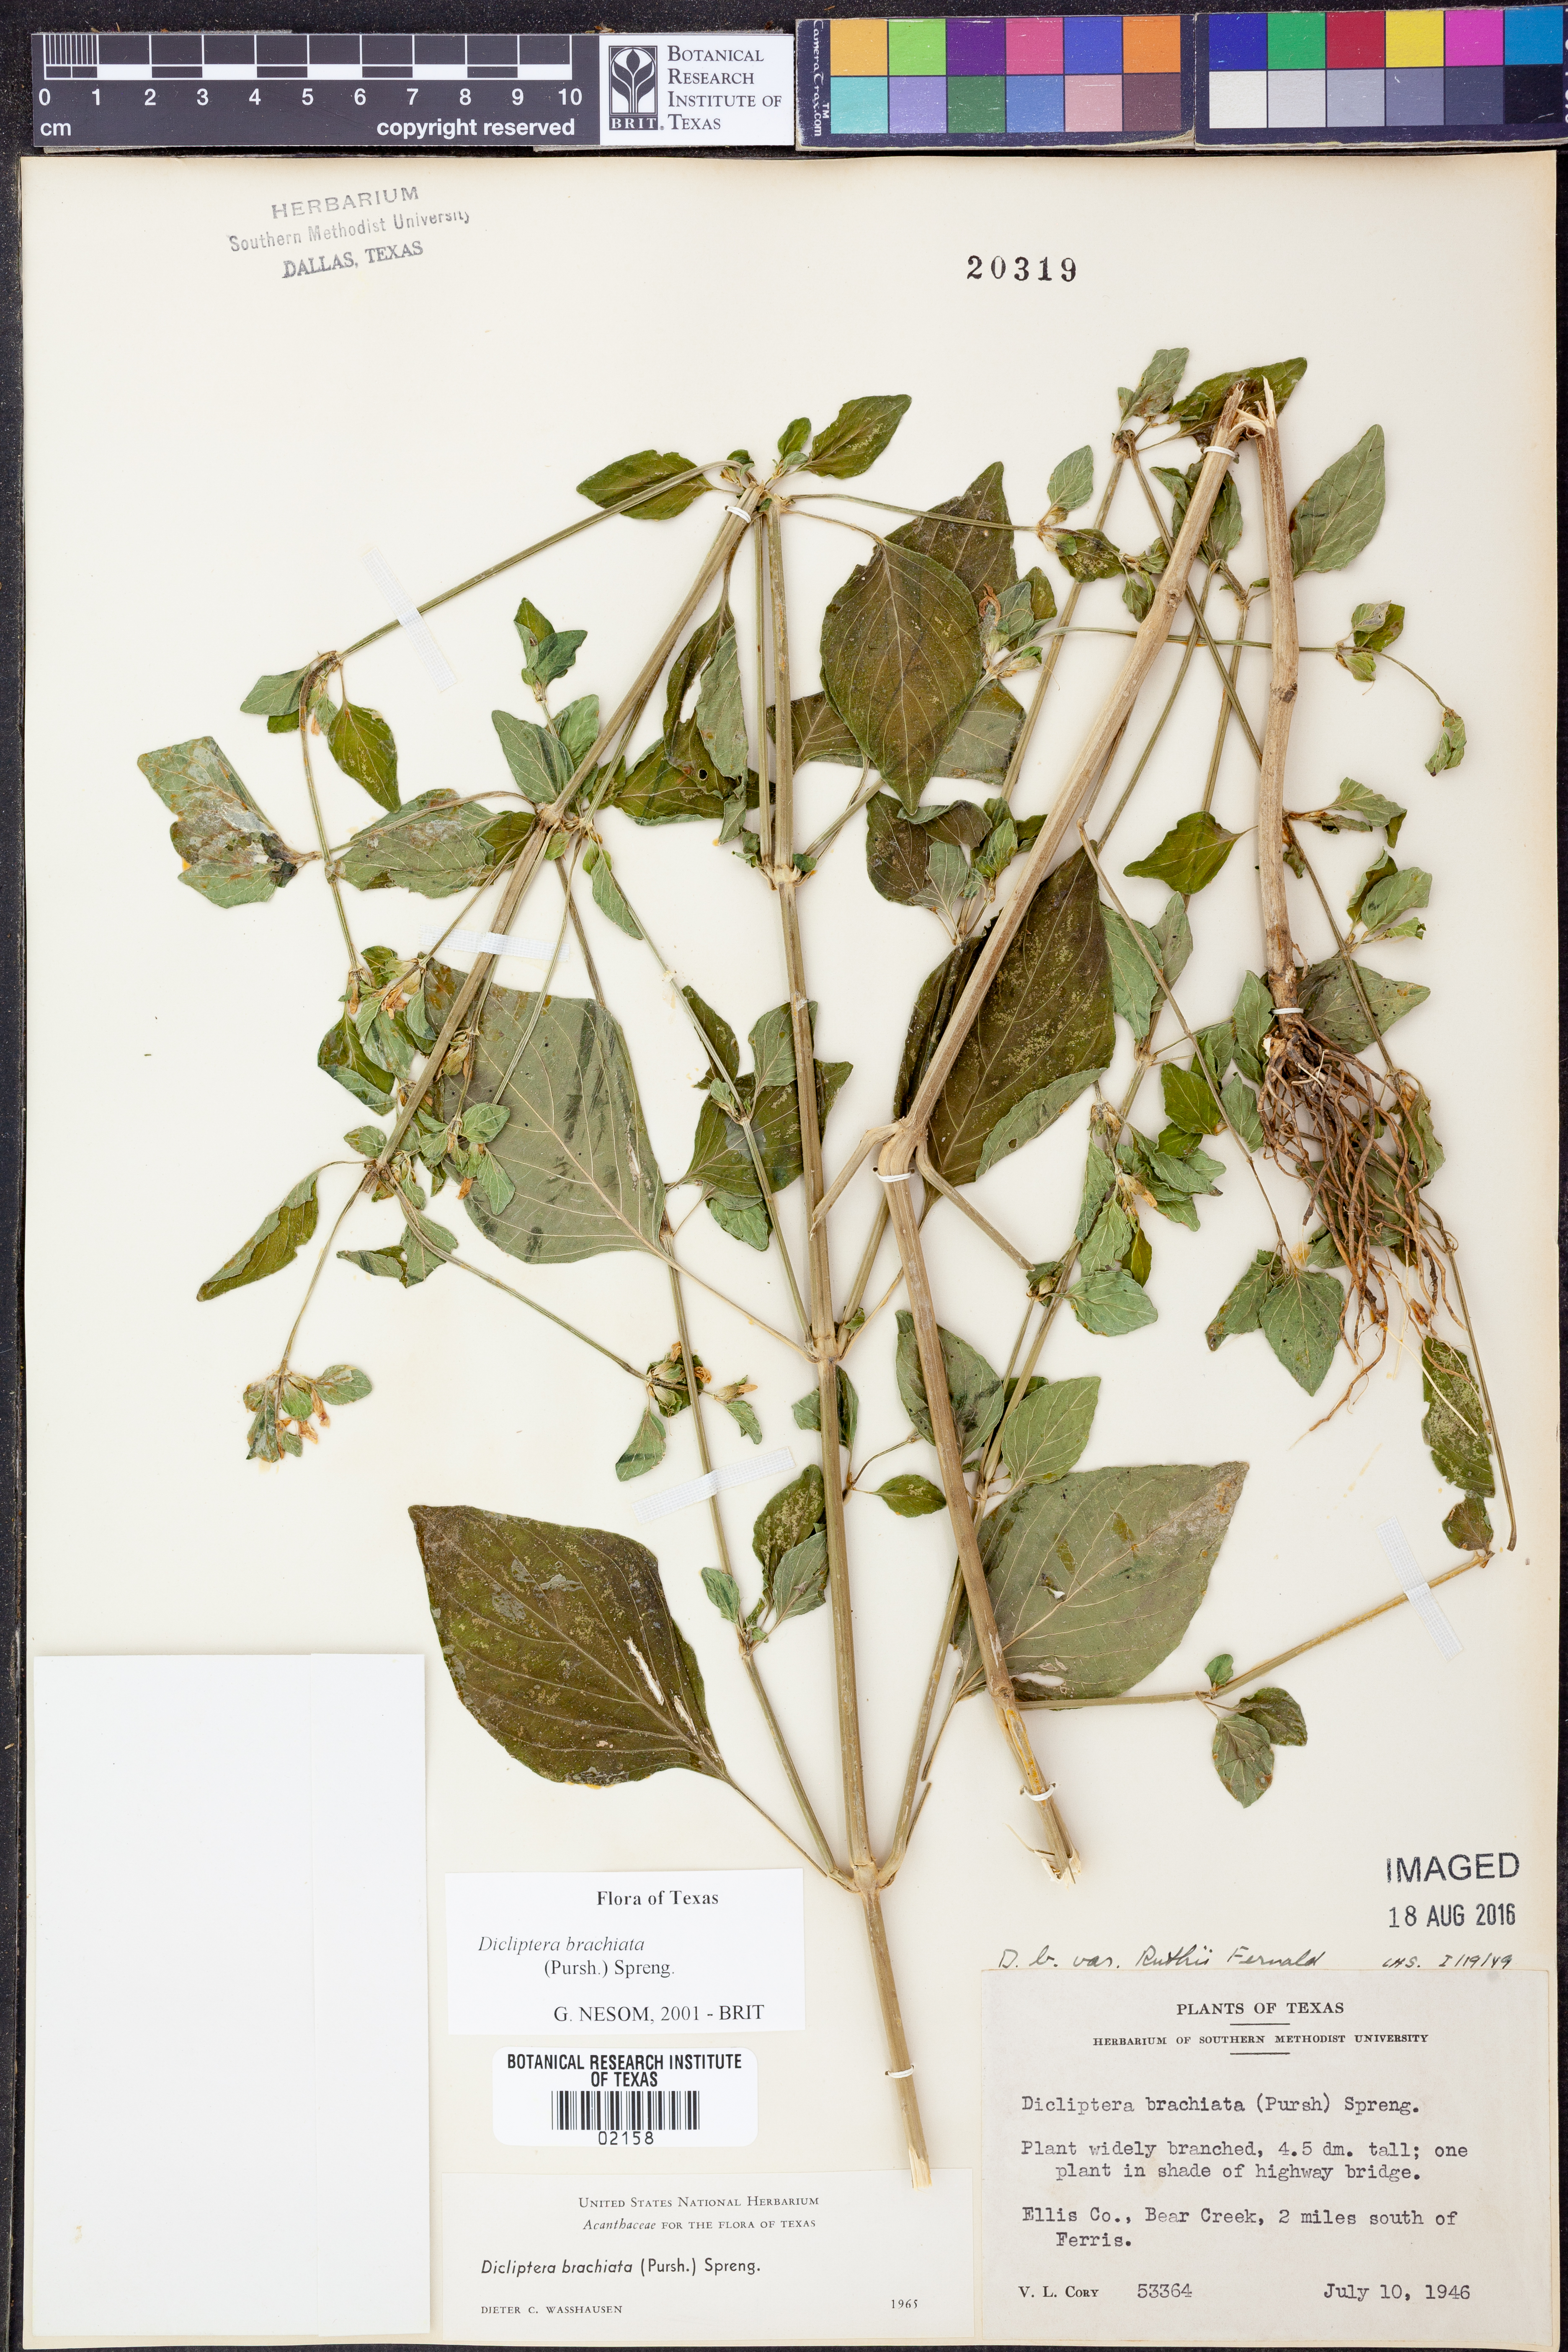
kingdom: Plantae
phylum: Tracheophyta
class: Magnoliopsida
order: Lamiales
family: Acanthaceae
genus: Dicliptera
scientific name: Dicliptera brachiata
